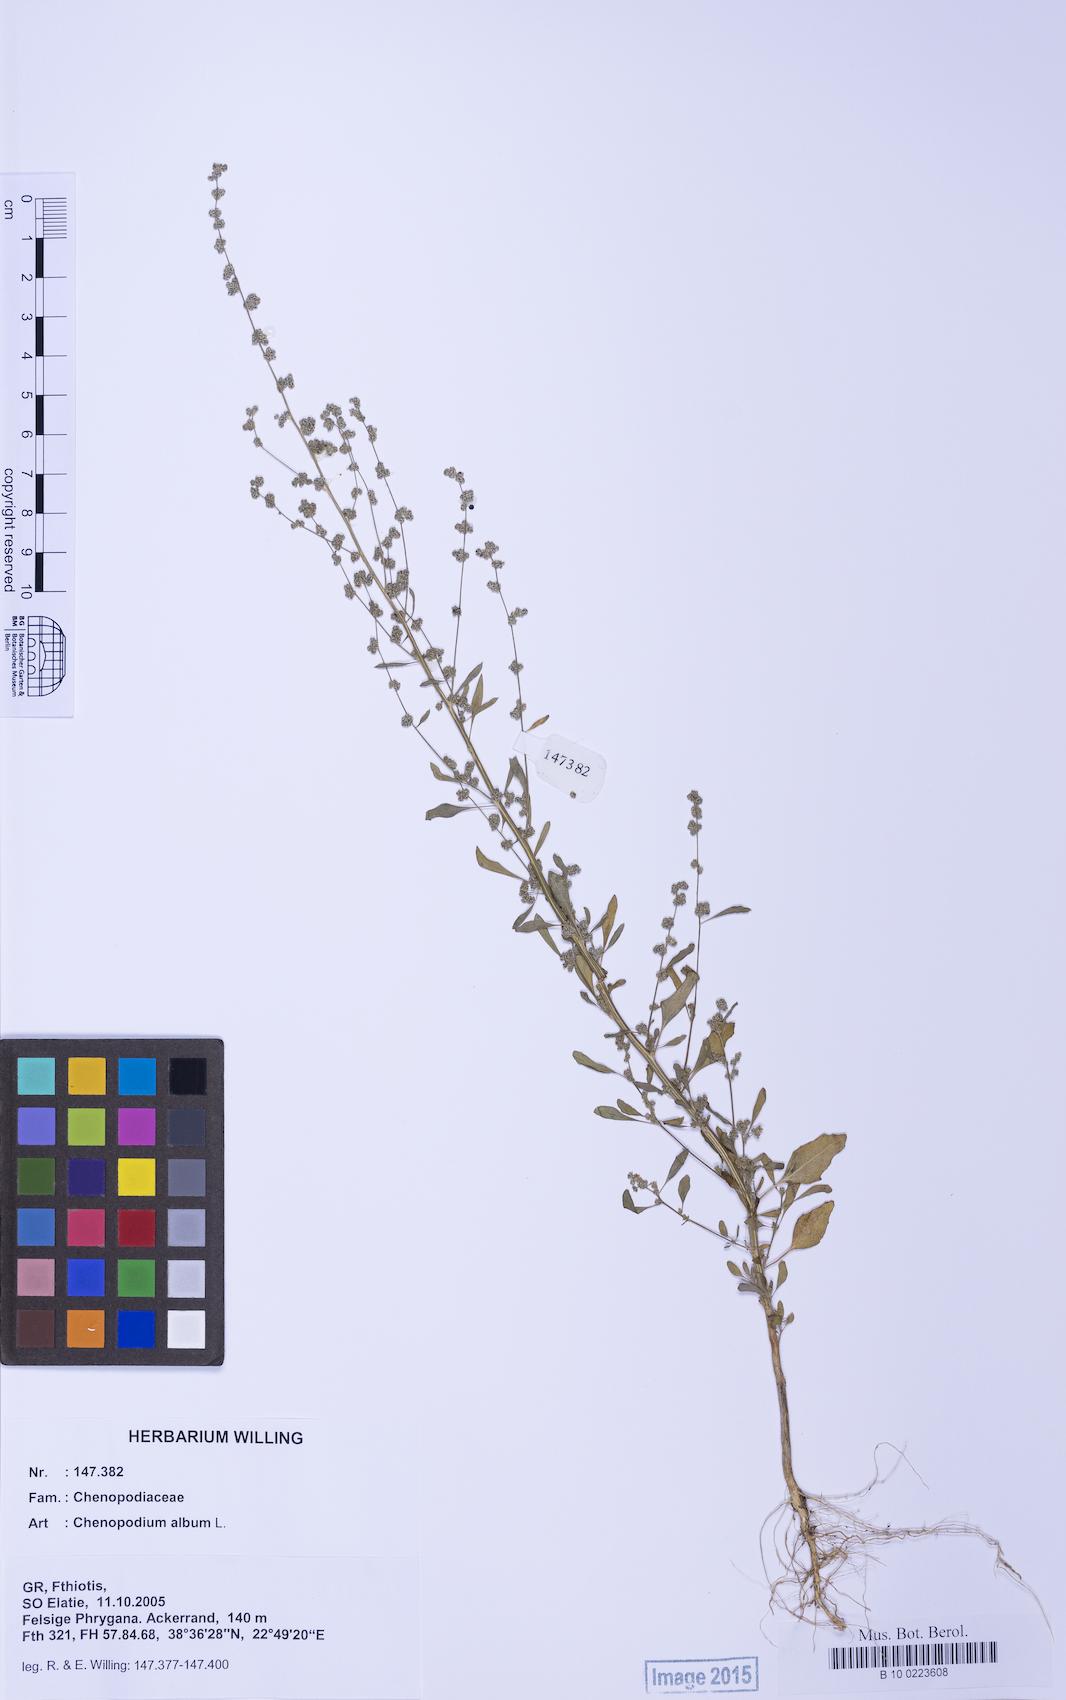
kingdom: Plantae
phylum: Tracheophyta
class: Magnoliopsida
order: Caryophyllales
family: Amaranthaceae
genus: Chenopodium
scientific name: Chenopodium album
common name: Fat-hen
